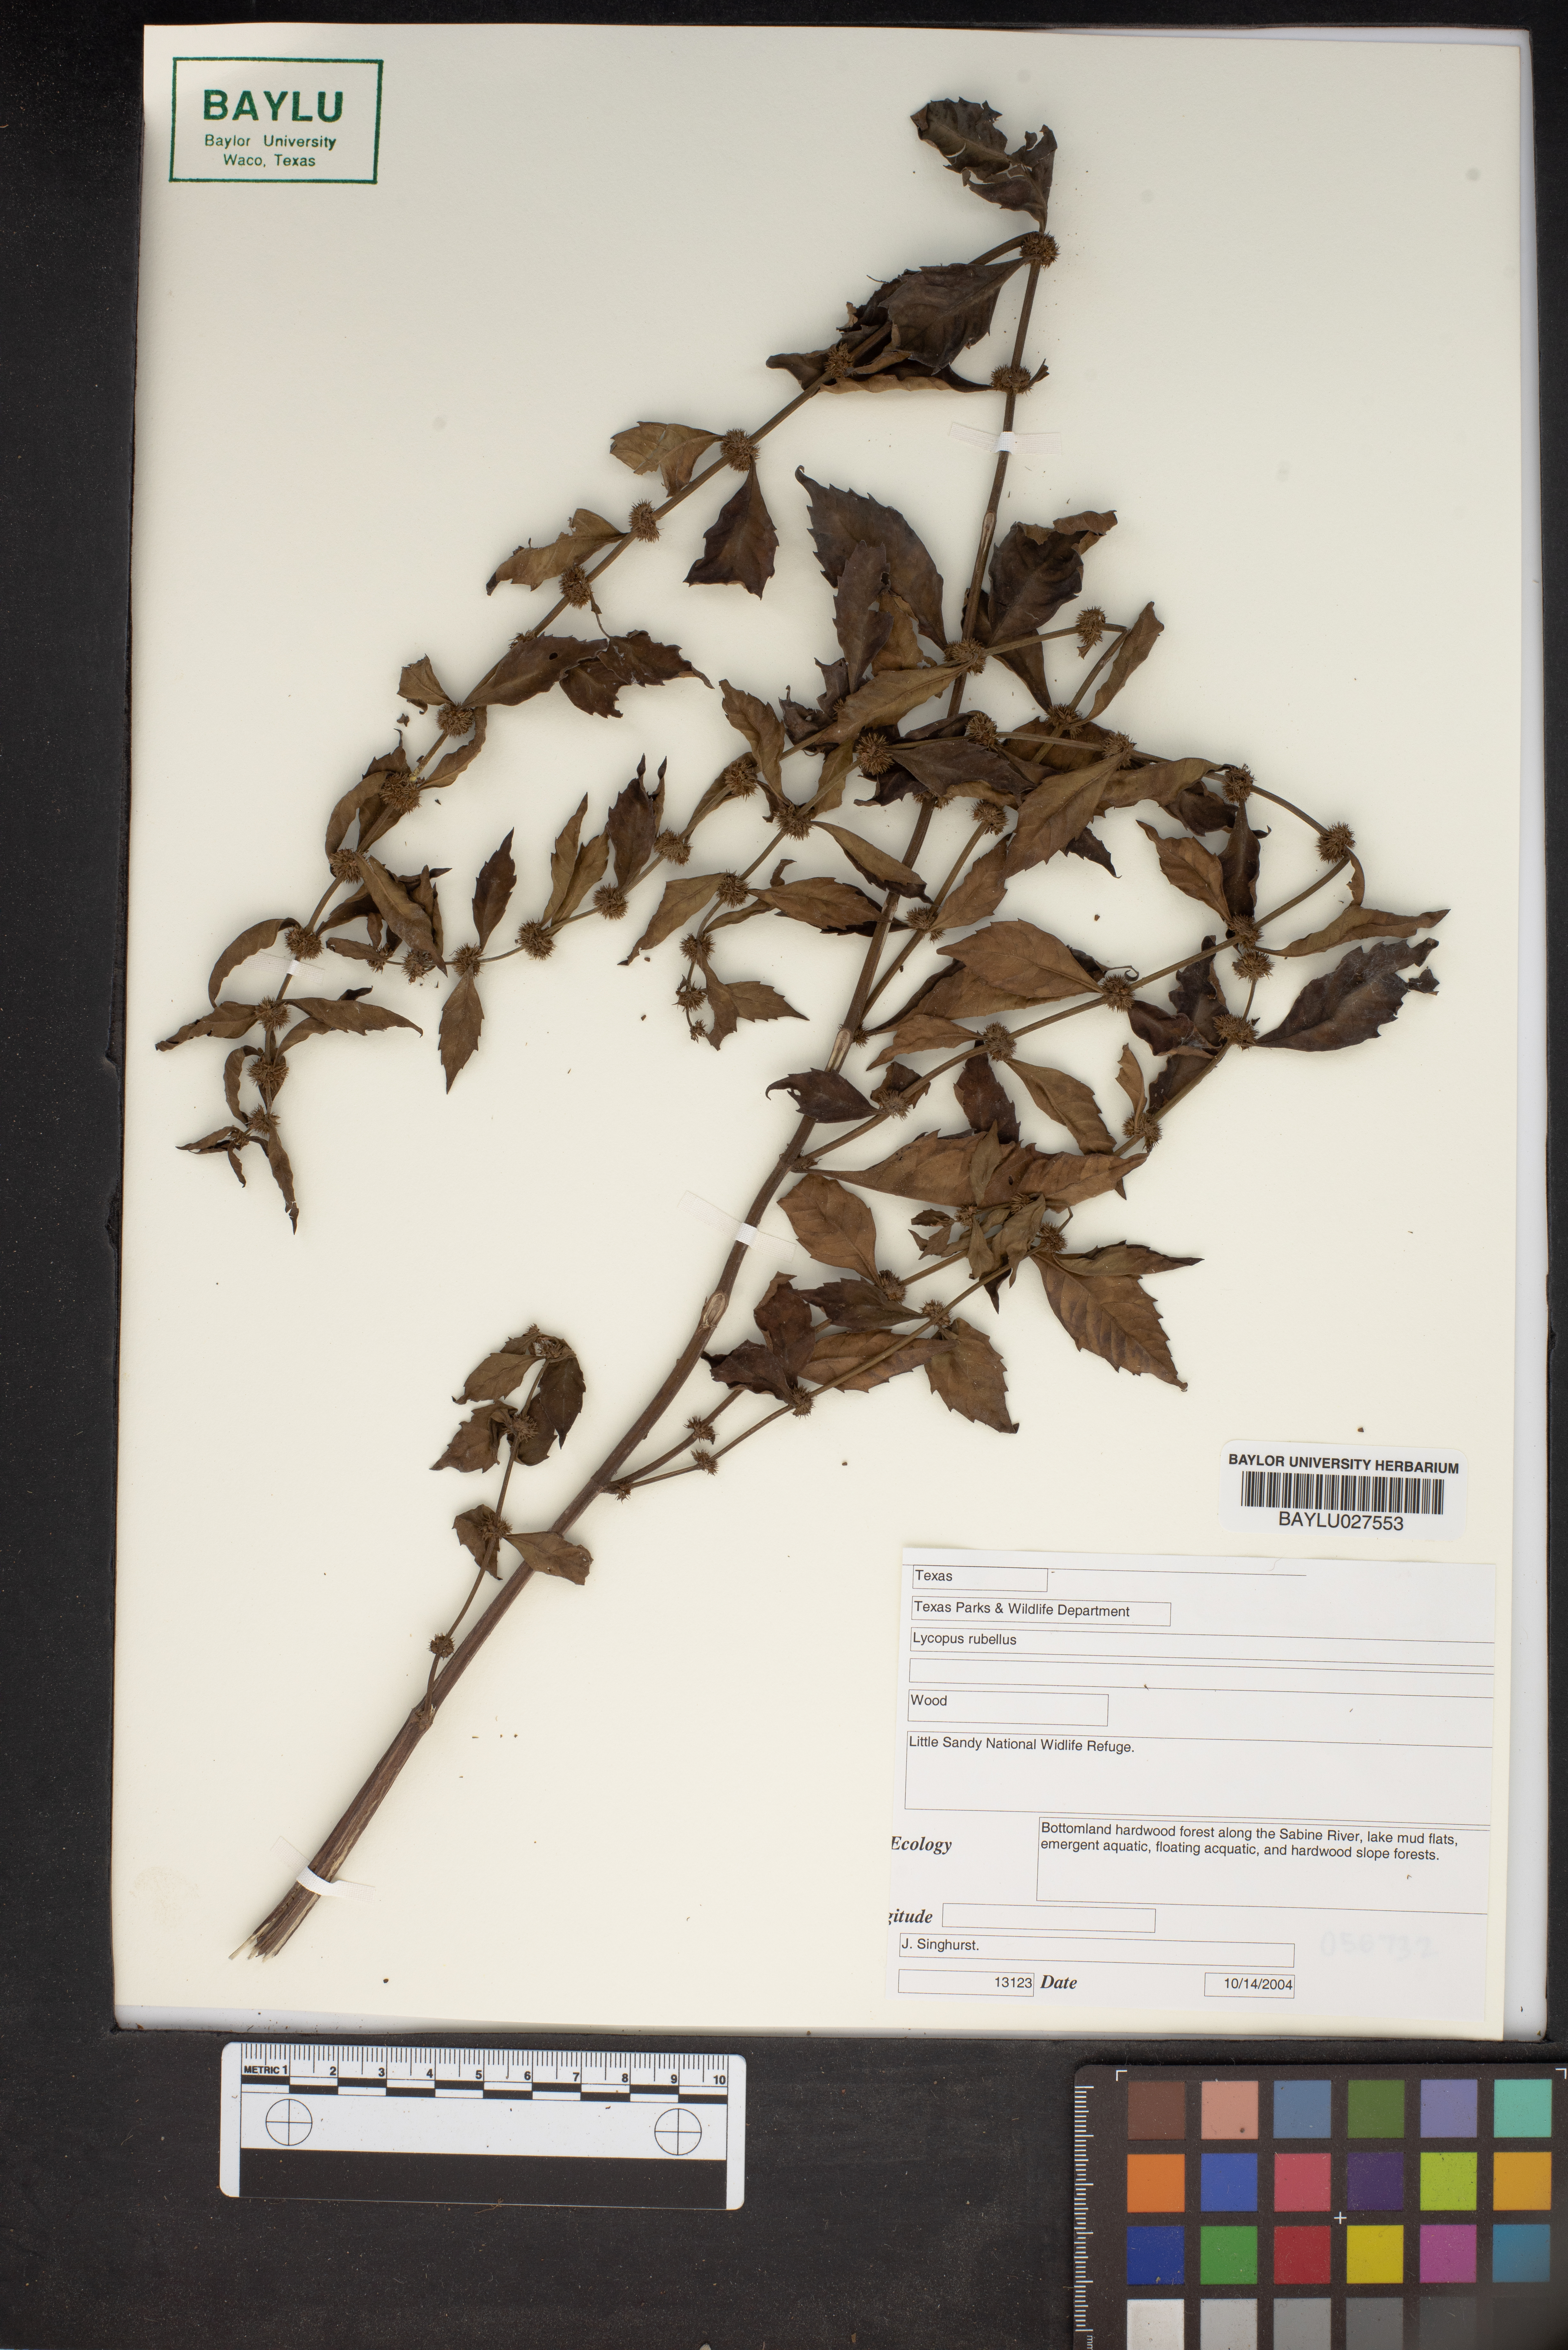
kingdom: Plantae
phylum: Tracheophyta
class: Magnoliopsida
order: Lamiales
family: Lamiaceae
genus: Lycopus
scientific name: Lycopus rubellus
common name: Stalked bugleweed
